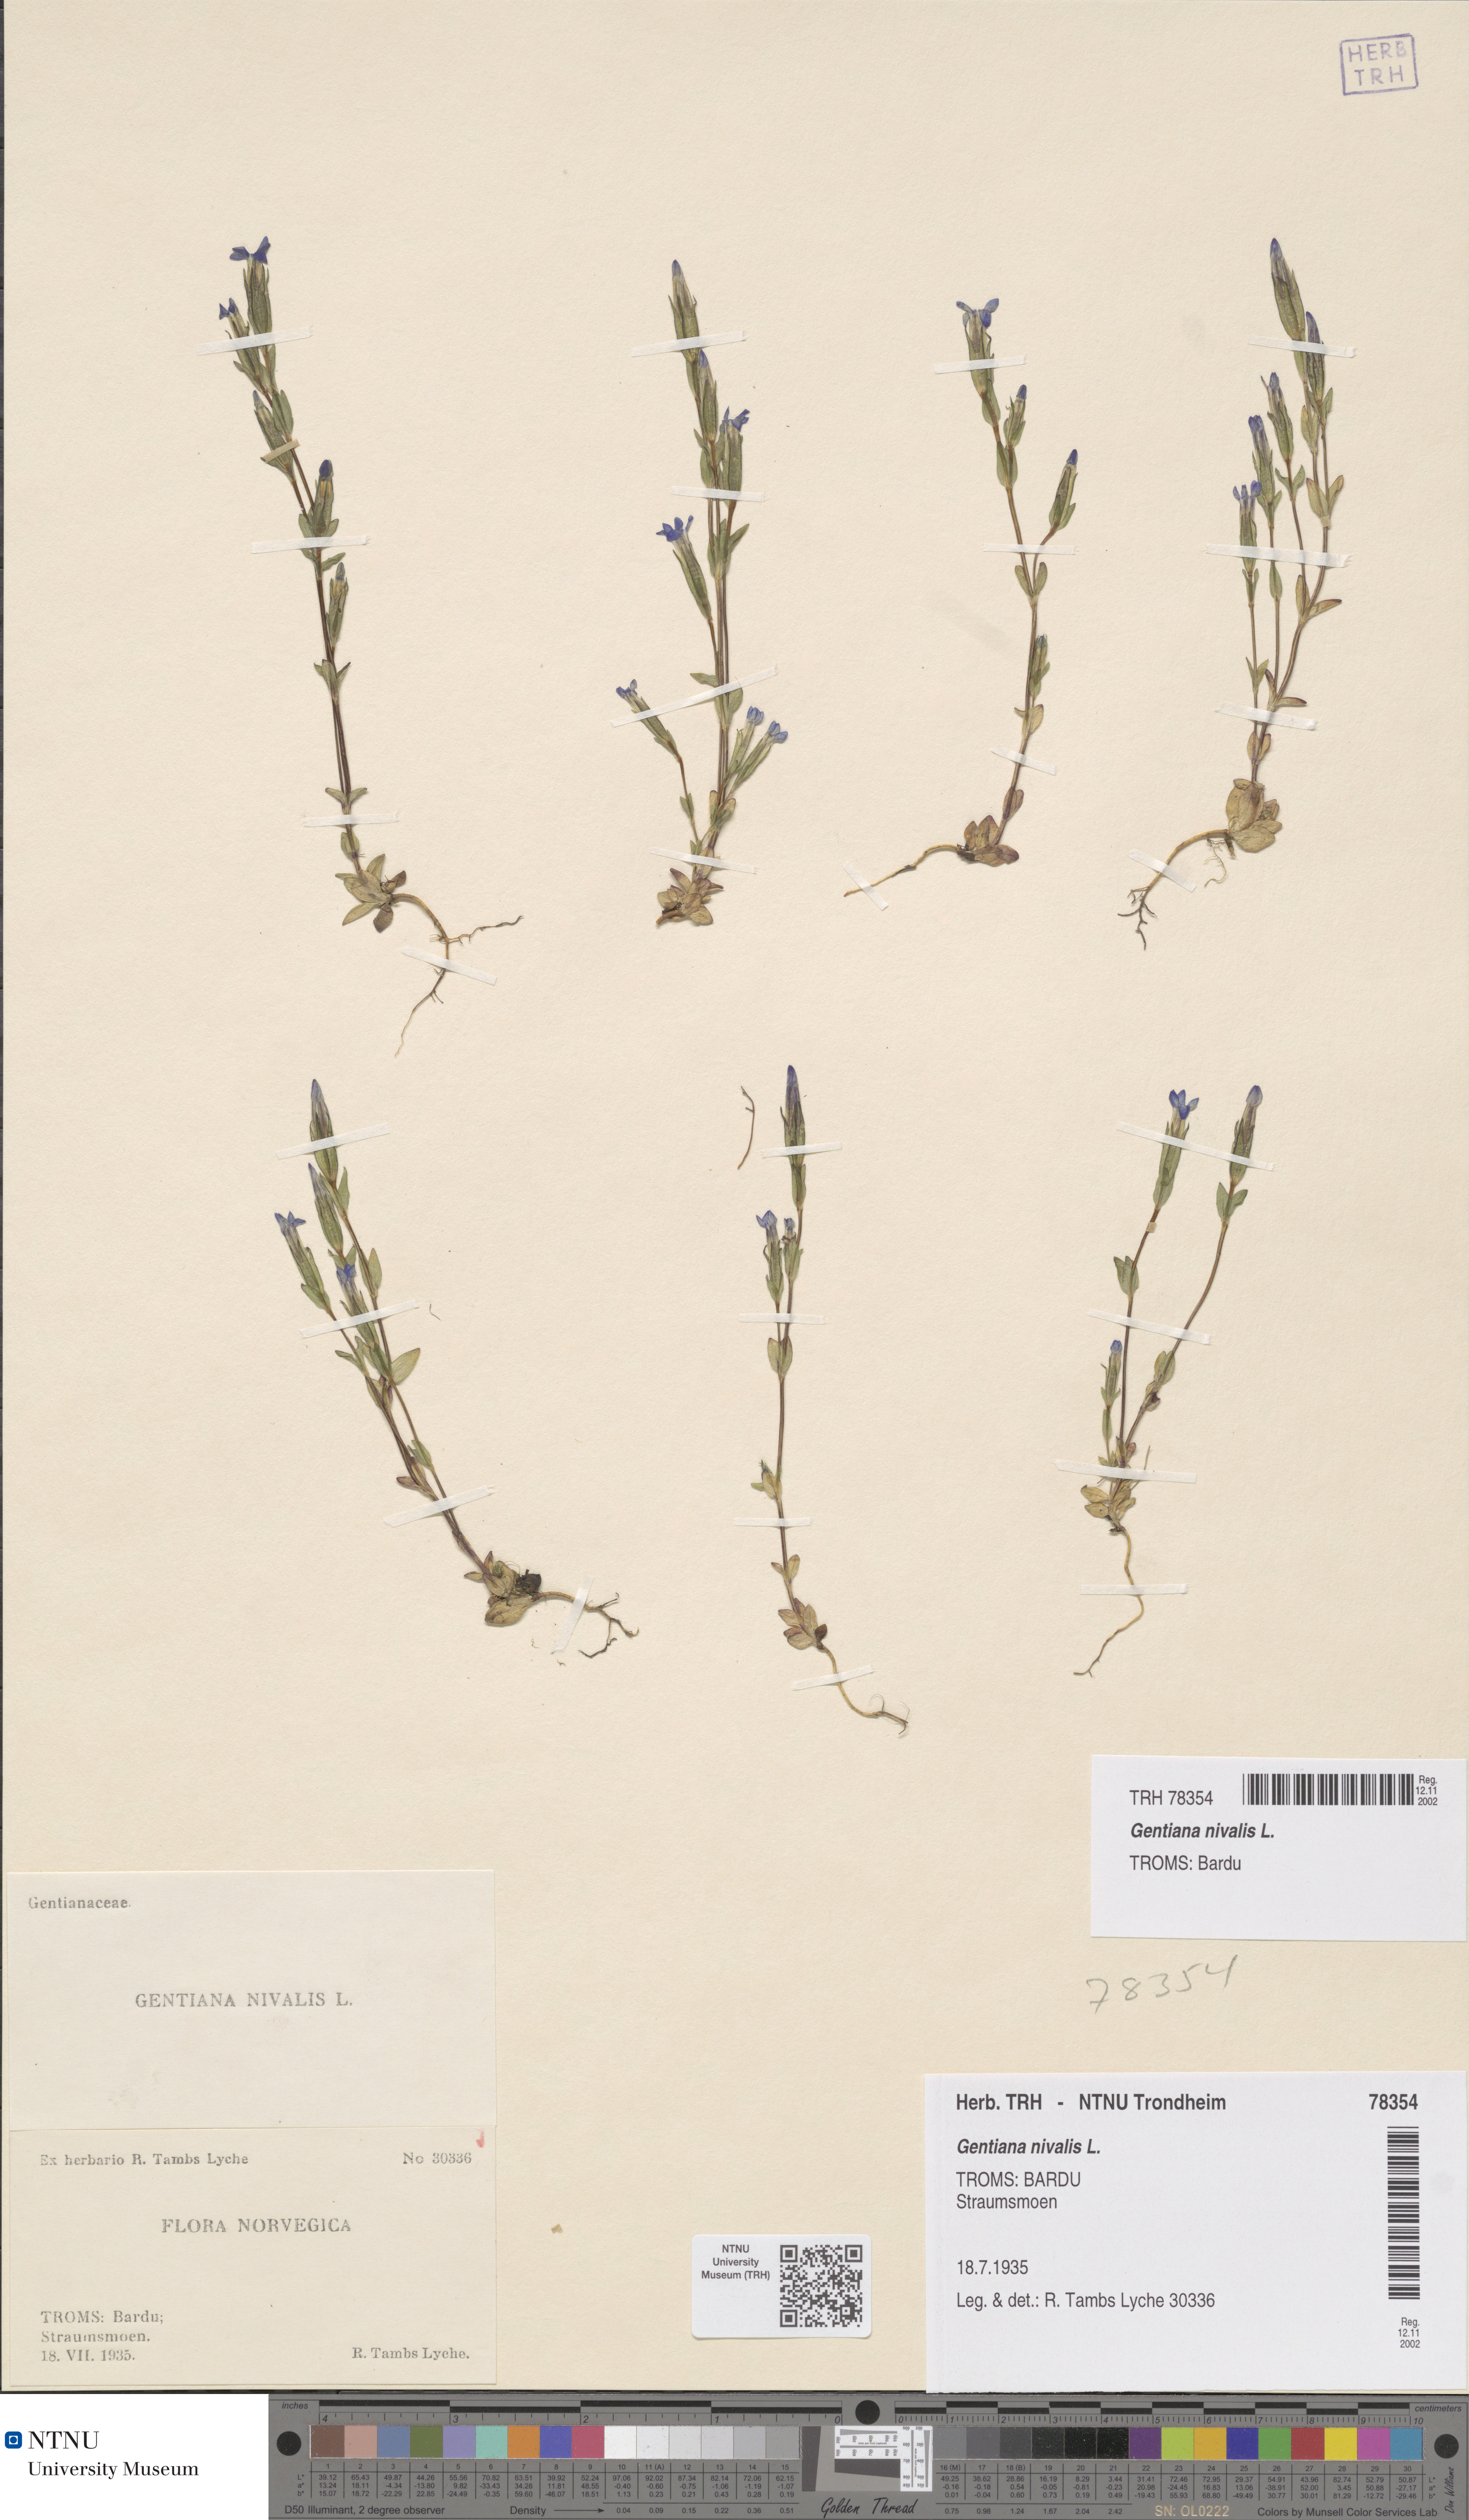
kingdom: Plantae
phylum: Tracheophyta
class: Magnoliopsida
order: Gentianales
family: Gentianaceae
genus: Gentiana
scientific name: Gentiana nivalis
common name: Alpine gentian
